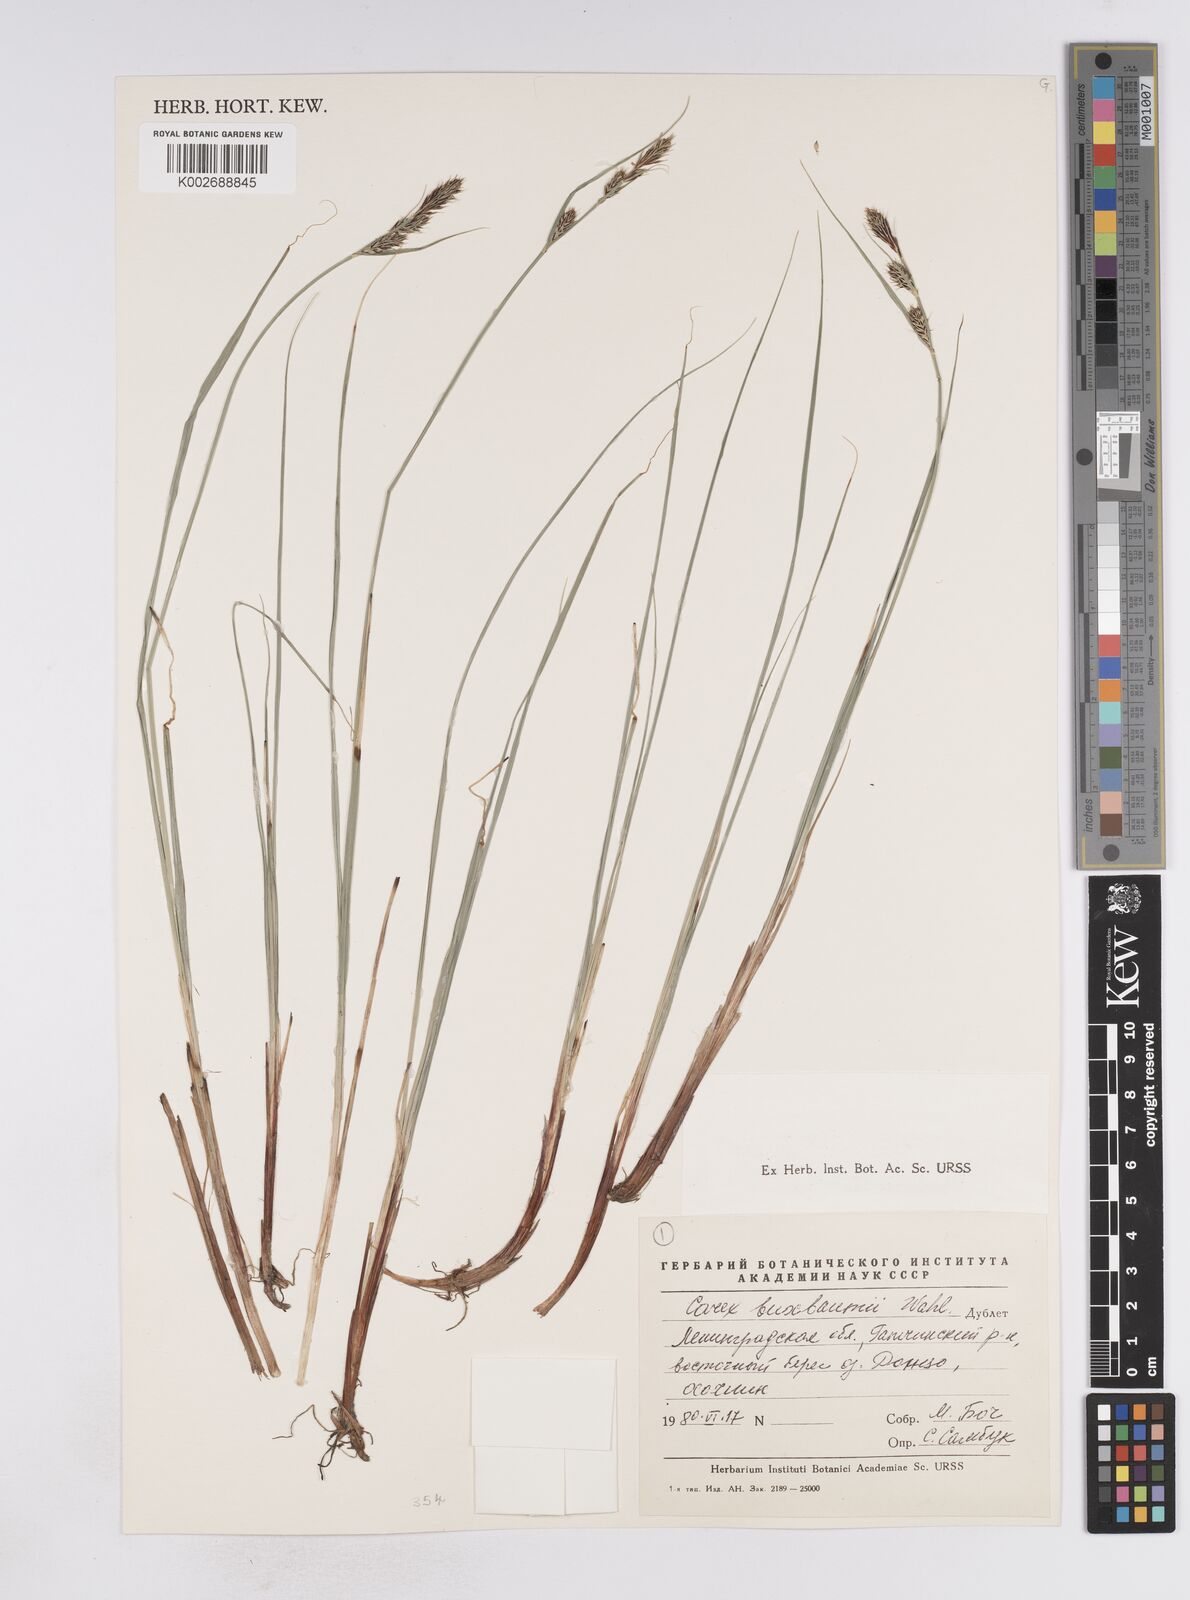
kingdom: Plantae
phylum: Tracheophyta
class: Liliopsida
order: Poales
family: Cyperaceae
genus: Carex
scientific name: Carex buxbaumii
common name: Club sedge
